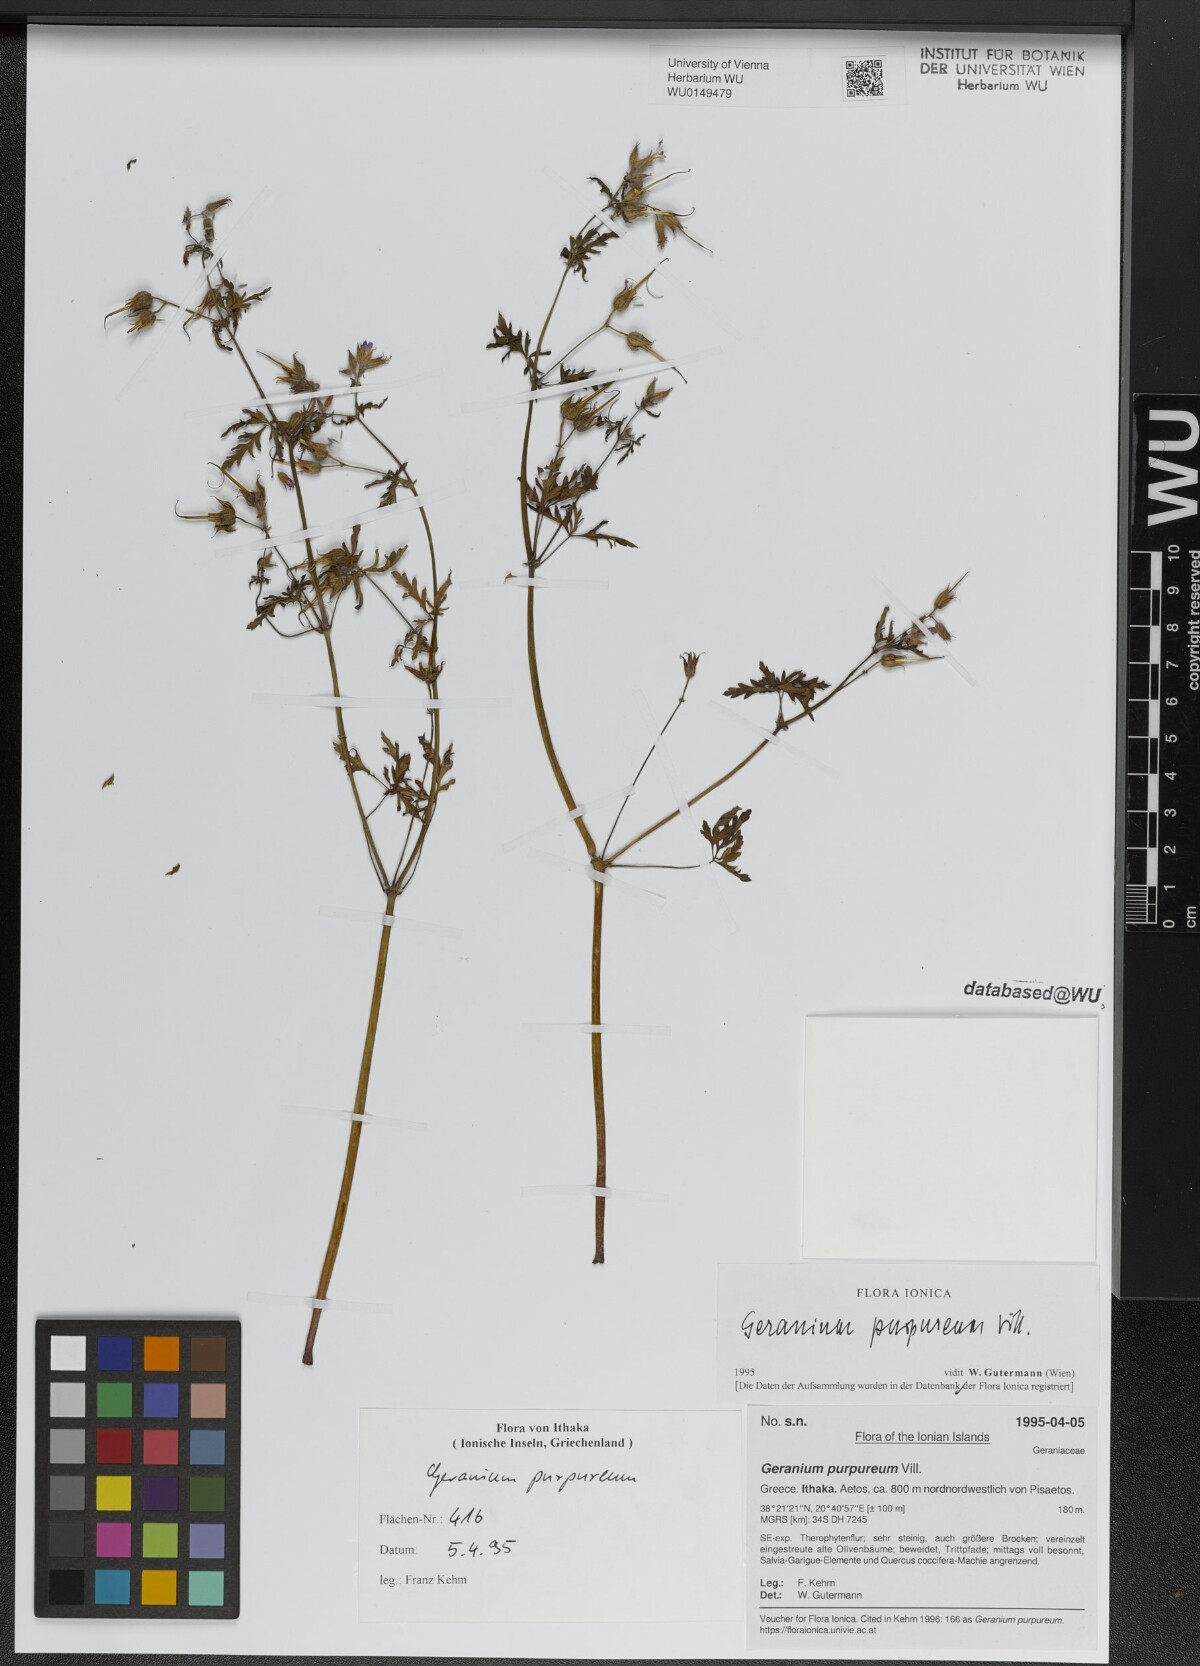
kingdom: Plantae
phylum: Tracheophyta
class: Magnoliopsida
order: Geraniales
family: Geraniaceae
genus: Geranium
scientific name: Geranium purpureum
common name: Little-robin
